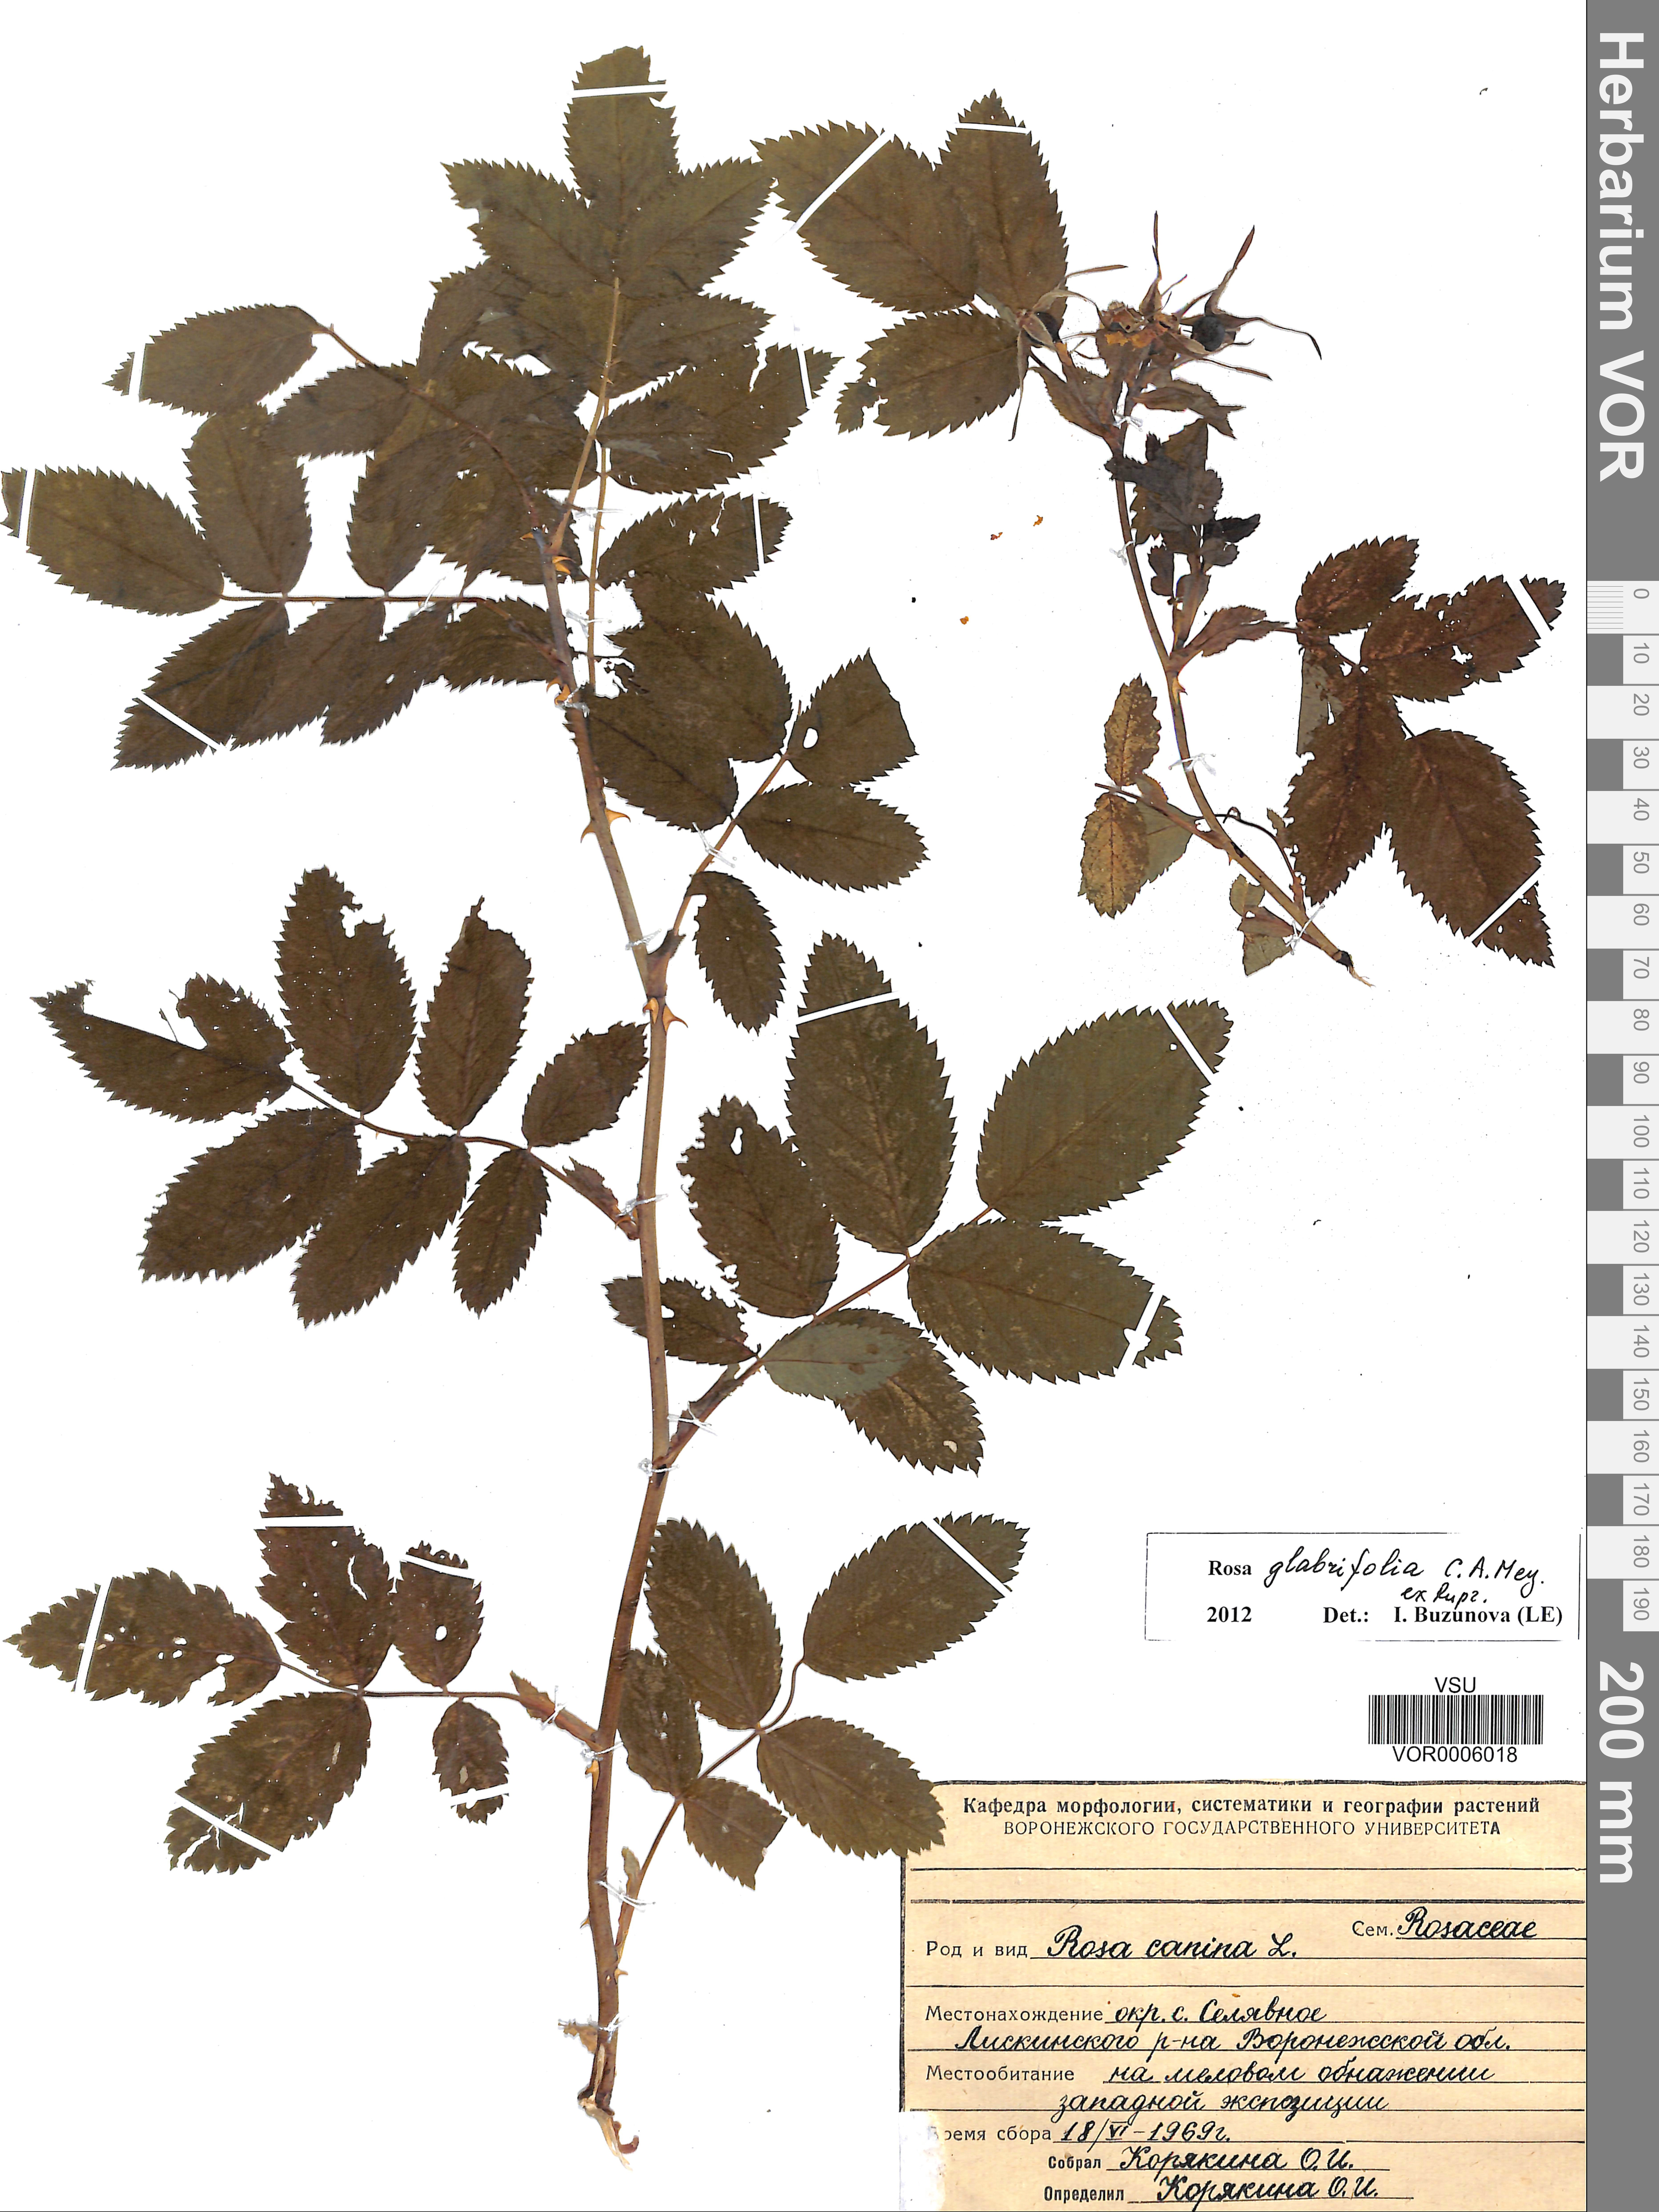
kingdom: Plantae
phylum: Tracheophyta
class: Magnoliopsida
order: Rosales
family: Rosaceae
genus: Rosa
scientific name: Rosa glabrifolia
